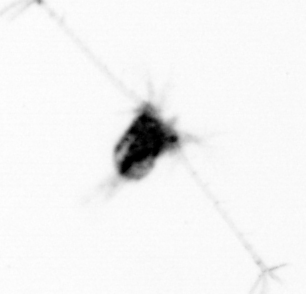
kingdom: Animalia
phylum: Arthropoda
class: Copepoda
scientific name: Copepoda
